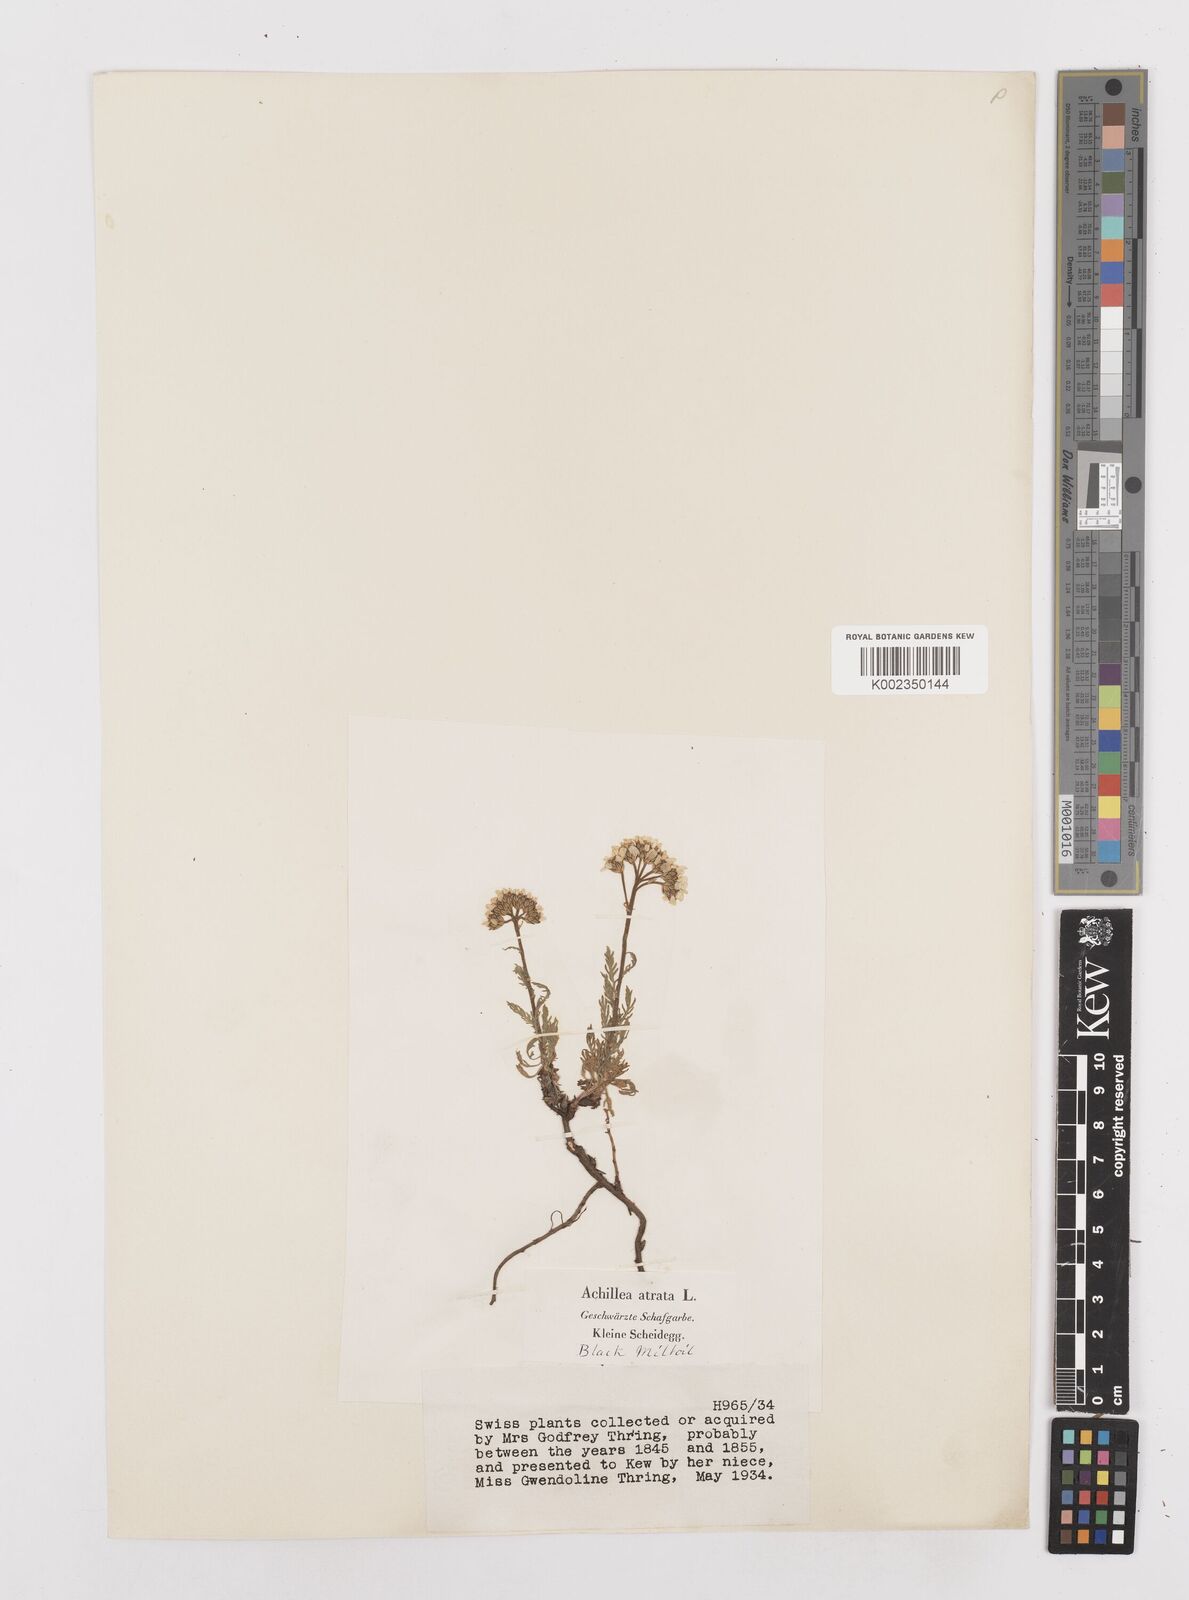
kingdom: Plantae
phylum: Tracheophyta
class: Magnoliopsida
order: Asterales
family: Asteraceae
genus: Achillea
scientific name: Achillea atrata
